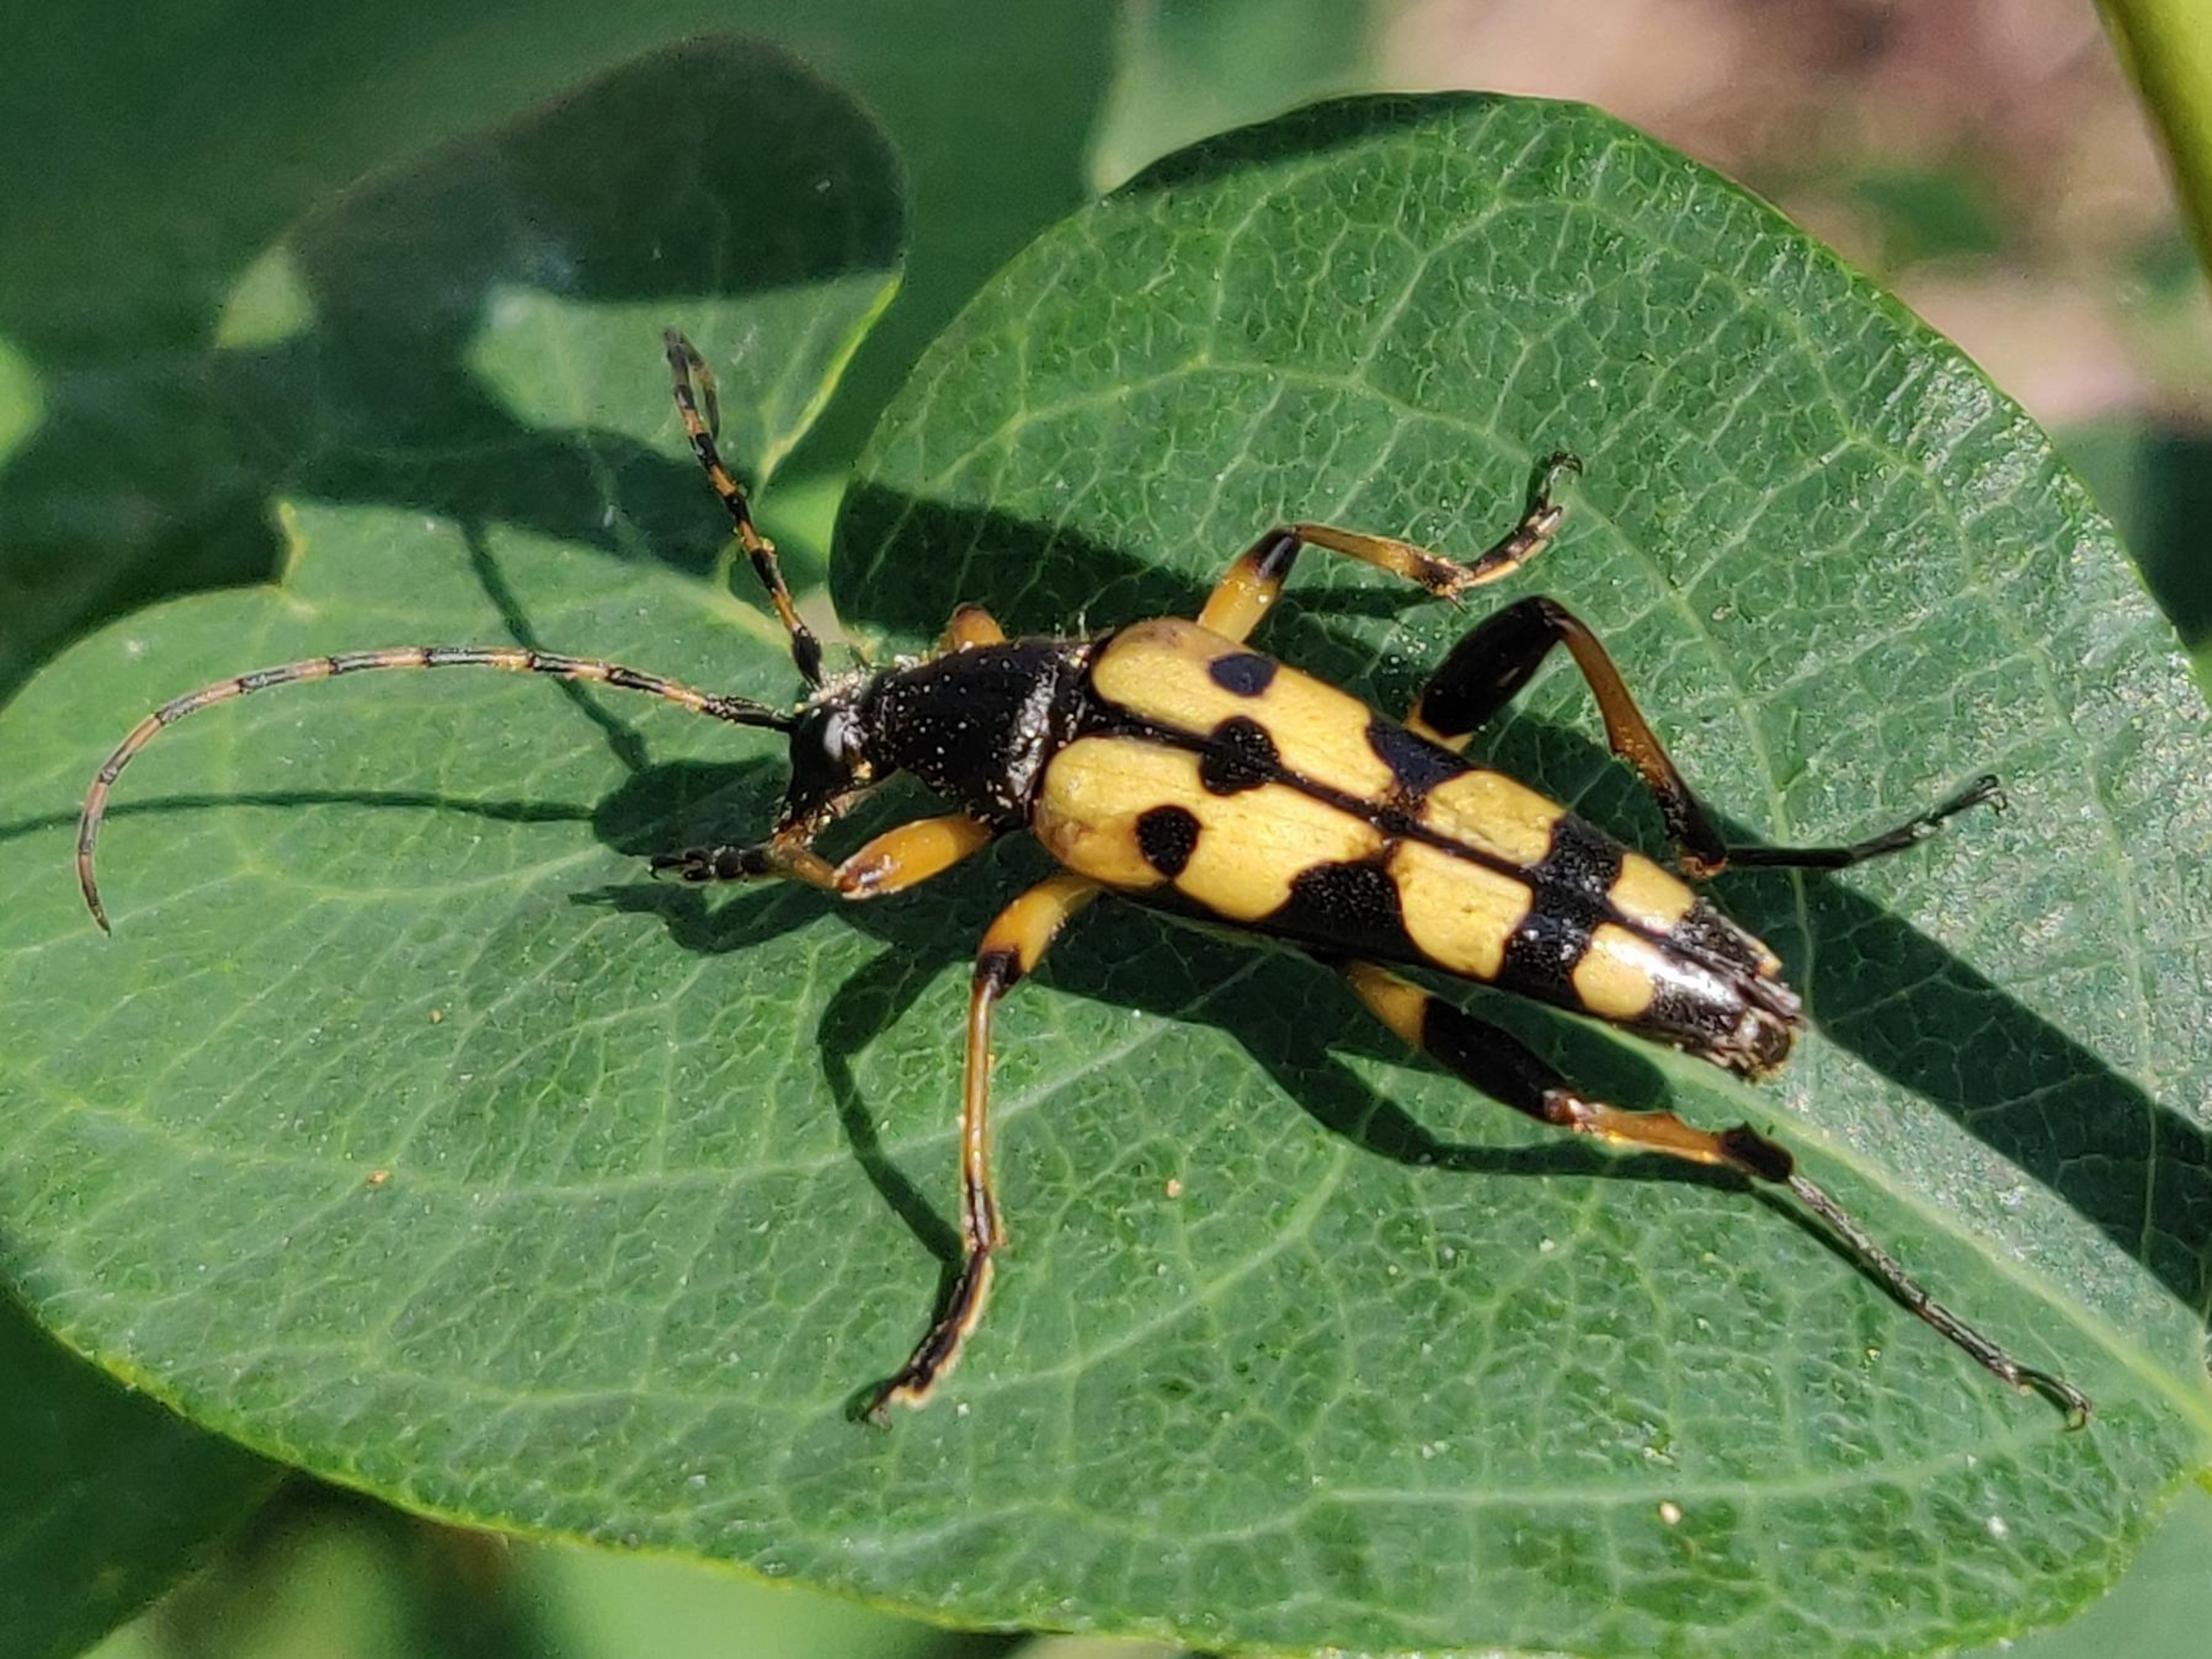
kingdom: Animalia
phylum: Arthropoda
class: Insecta
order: Coleoptera
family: Cerambycidae
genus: Rutpela
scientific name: Rutpela maculata
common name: Sydlig blomsterbuk
